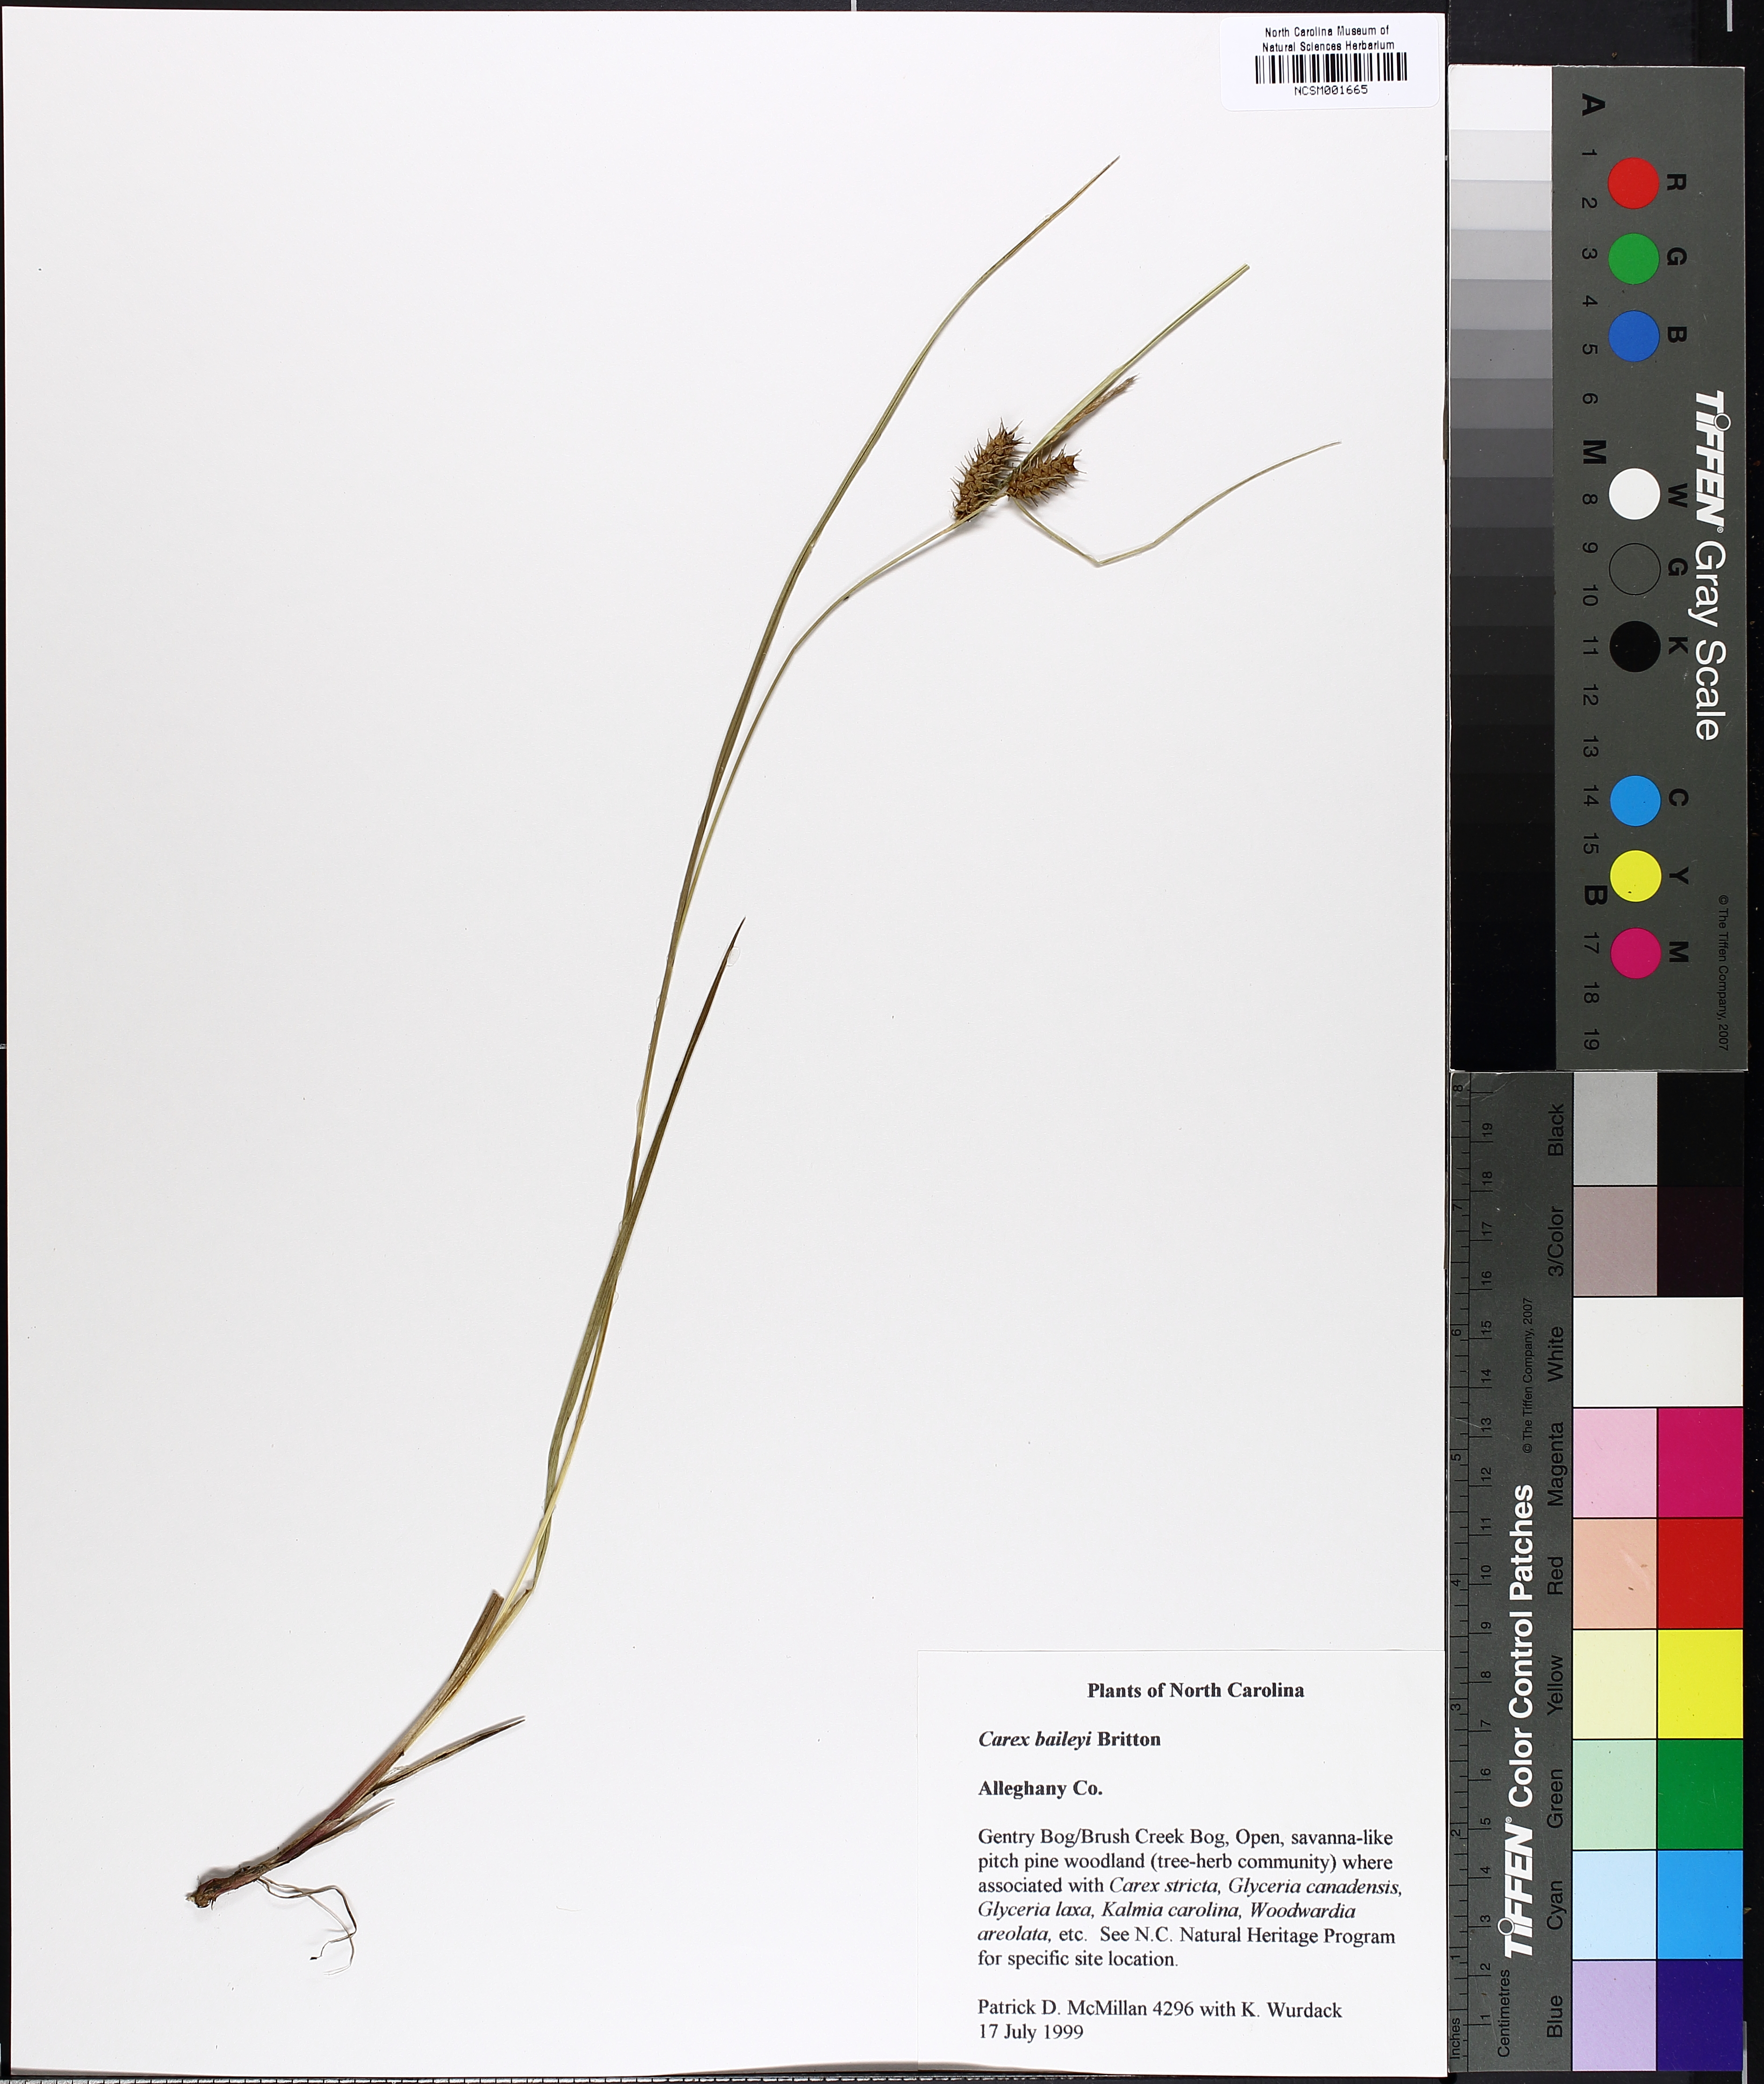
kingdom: Plantae
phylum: Tracheophyta
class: Liliopsida
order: Poales
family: Cyperaceae
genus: Carex
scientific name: Carex baileyi
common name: Bailey's sedge
